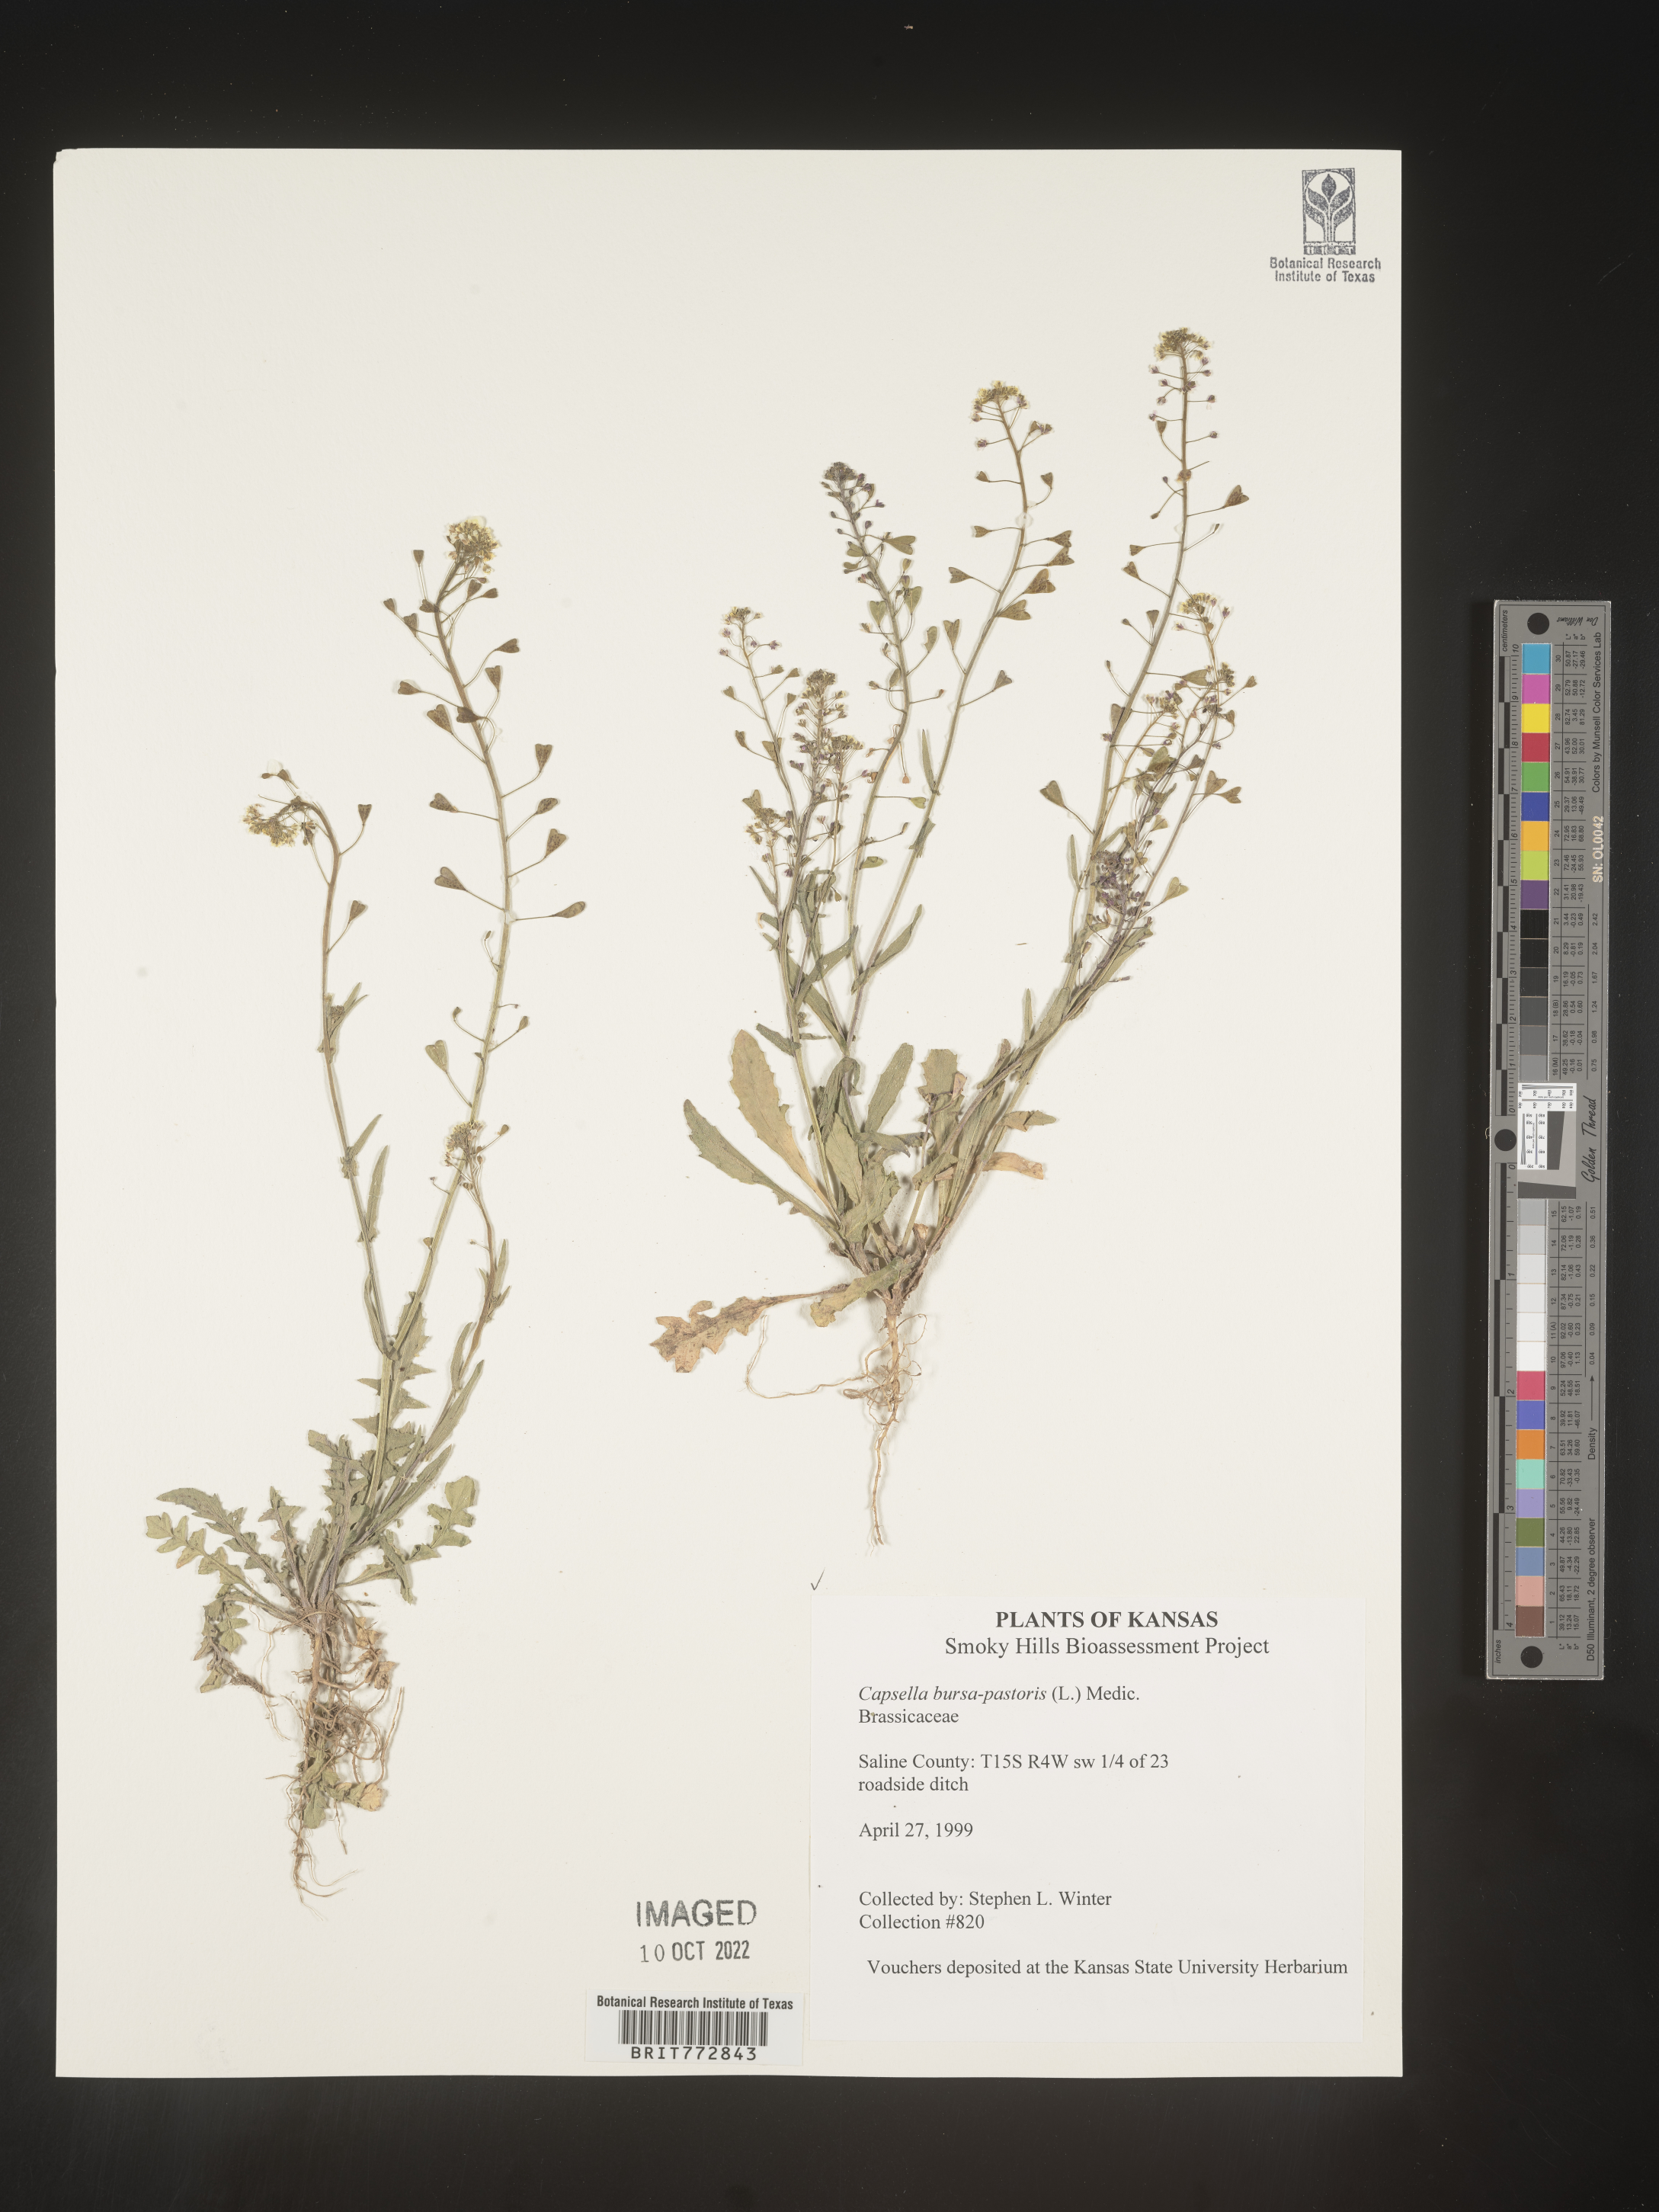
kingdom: Plantae
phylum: Tracheophyta
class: Magnoliopsida
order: Brassicales
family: Brassicaceae
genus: Capsella
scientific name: Capsella bursa-pastoris
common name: Shepherd's purse
